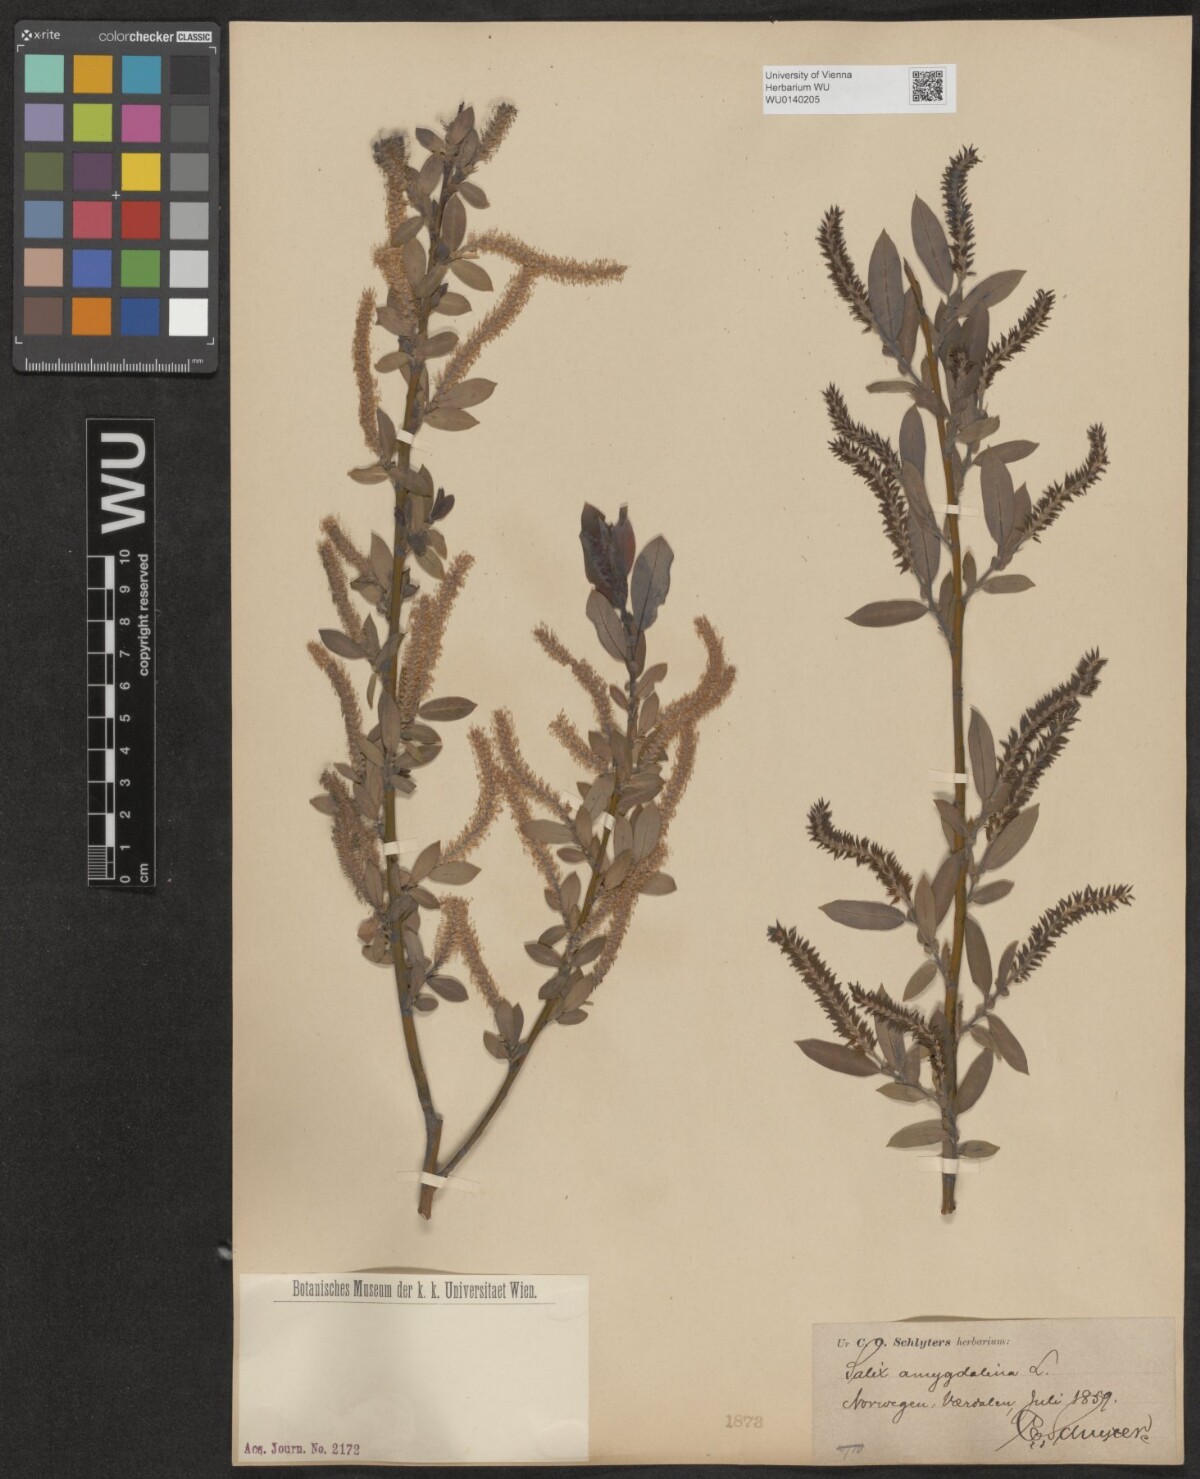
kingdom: Plantae
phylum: Tracheophyta
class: Magnoliopsida
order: Malpighiales
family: Salicaceae
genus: Salix
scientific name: Salix triandra
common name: Almond willow
